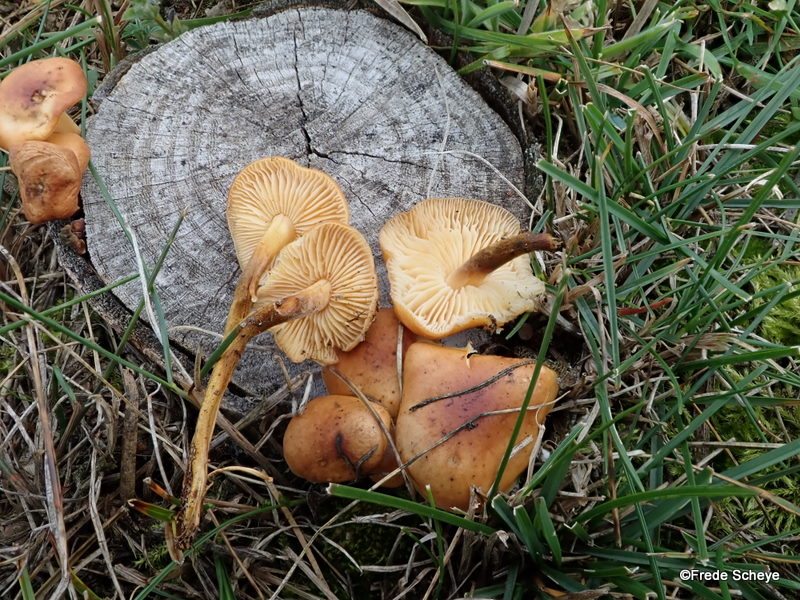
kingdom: Fungi
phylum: Basidiomycota
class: Agaricomycetes
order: Agaricales
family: Physalacriaceae
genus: Flammulina
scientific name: Flammulina velutipes
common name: gul fløjlsfod
